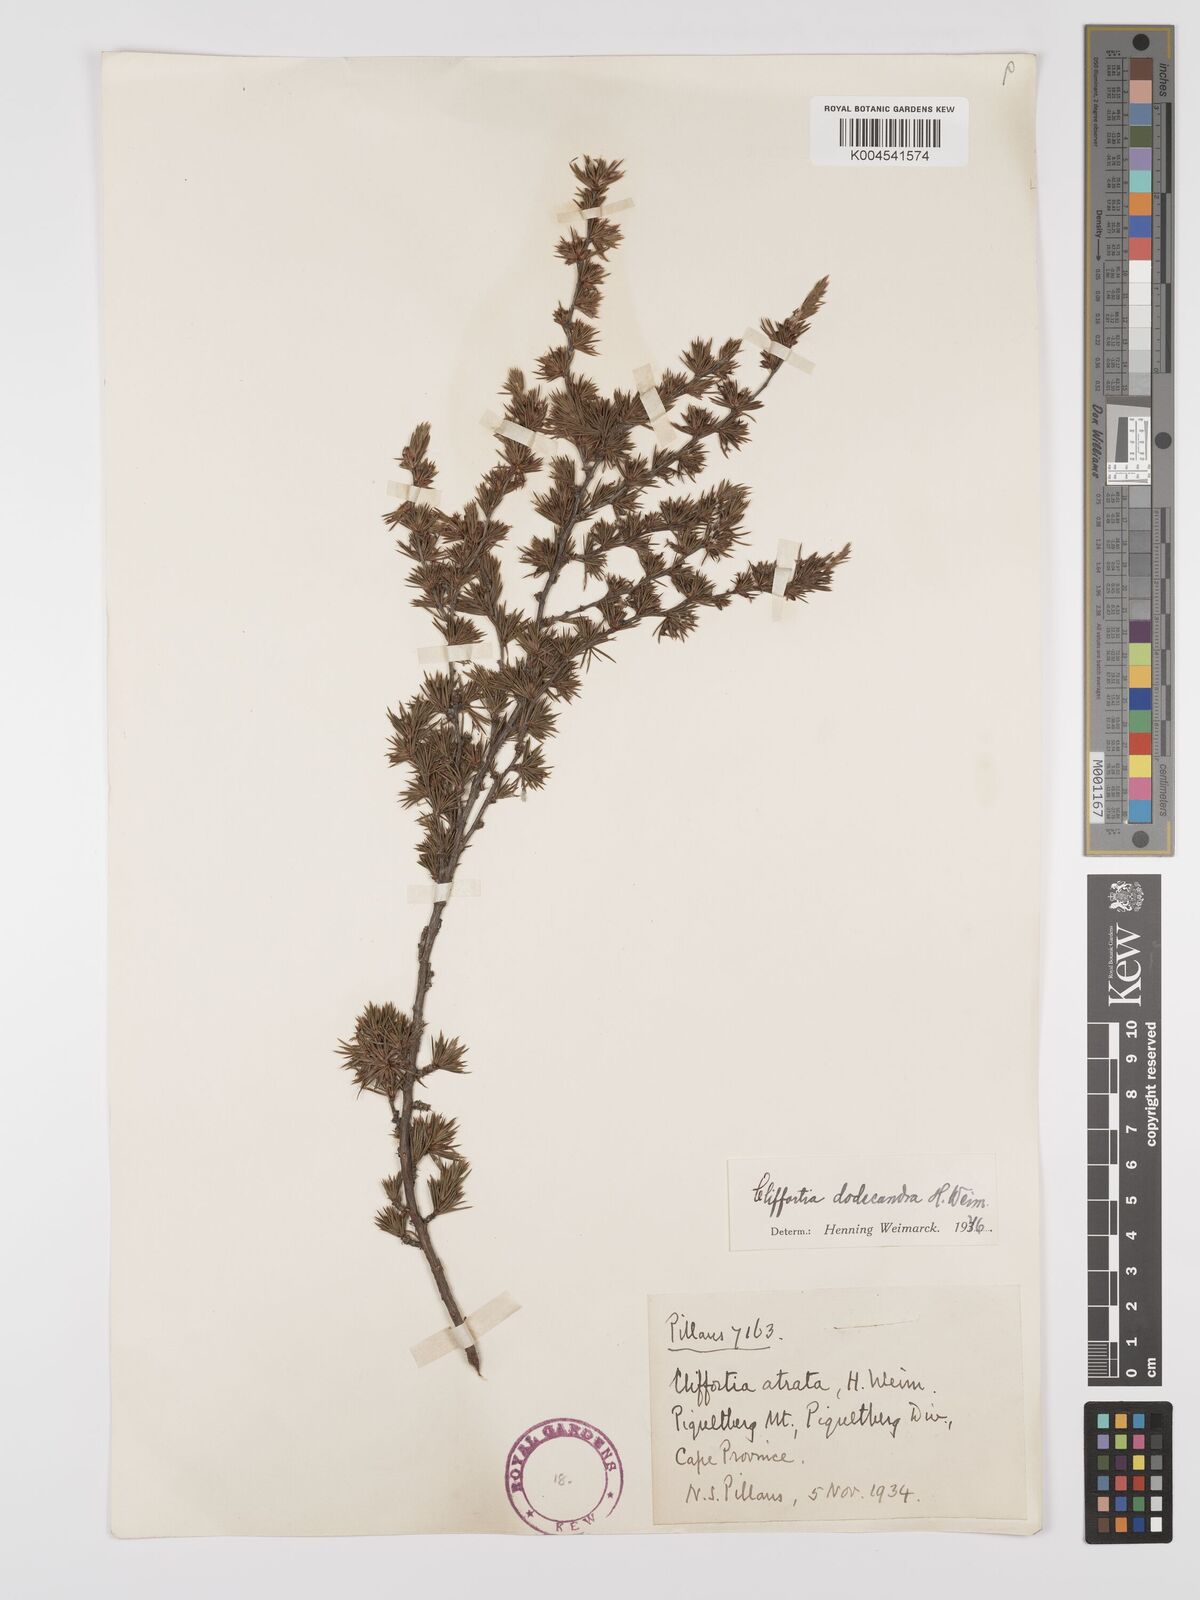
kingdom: Plantae
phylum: Tracheophyta
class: Magnoliopsida
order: Rosales
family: Rosaceae
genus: Cliffortia
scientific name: Cliffortia dodecandra
